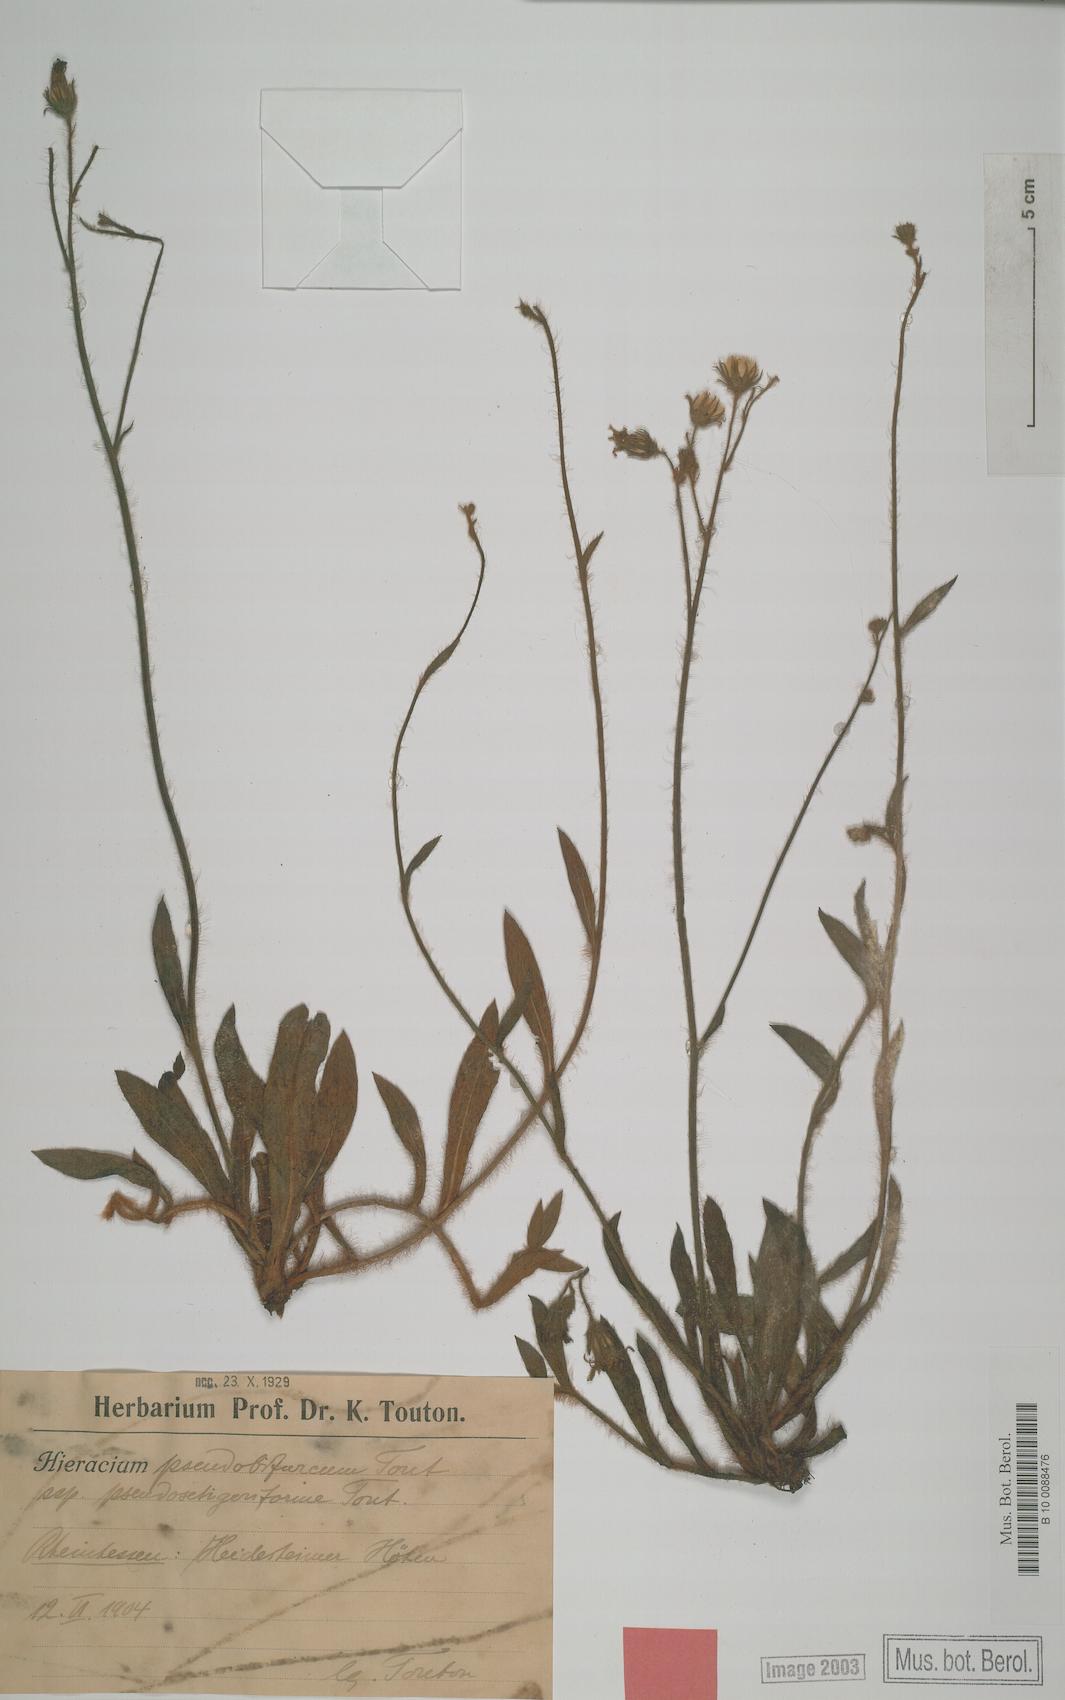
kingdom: Plantae
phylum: Tracheophyta
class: Magnoliopsida
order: Asterales
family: Asteraceae
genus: Hieracium
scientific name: Hieracium bifurcum
